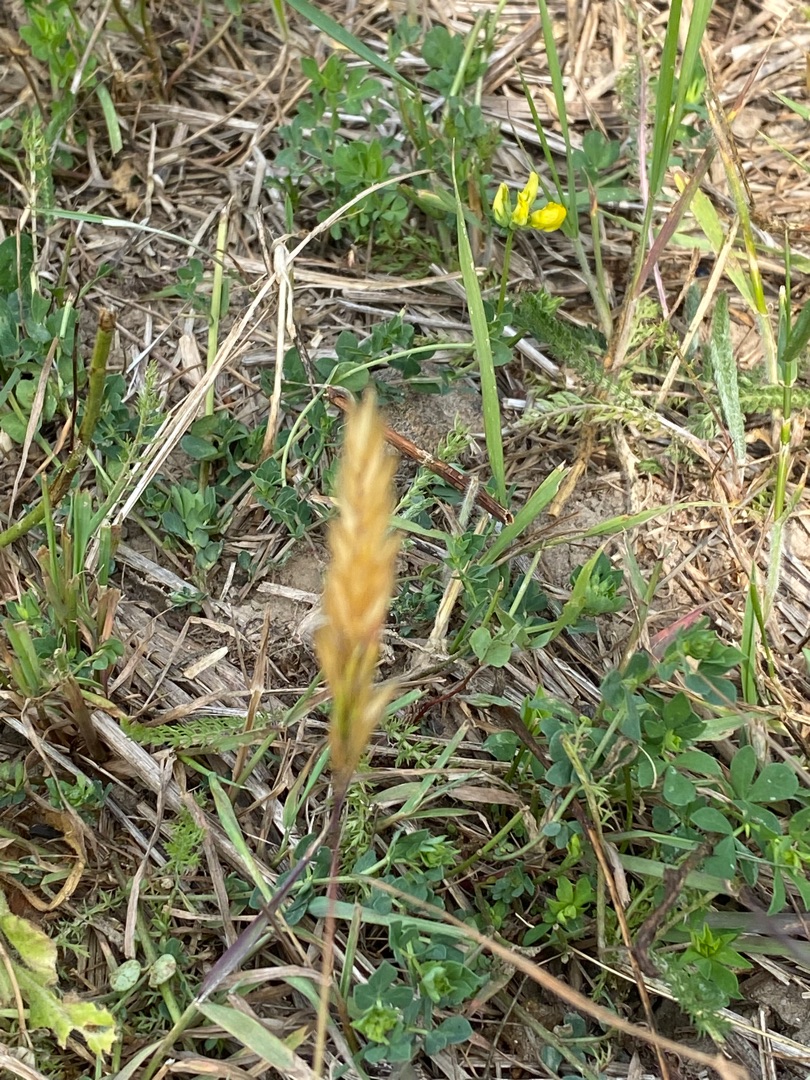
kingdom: Plantae
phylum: Tracheophyta
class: Liliopsida
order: Poales
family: Poaceae
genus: Anthoxanthum
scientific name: Anthoxanthum odoratum
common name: Vellugtende gulaks
